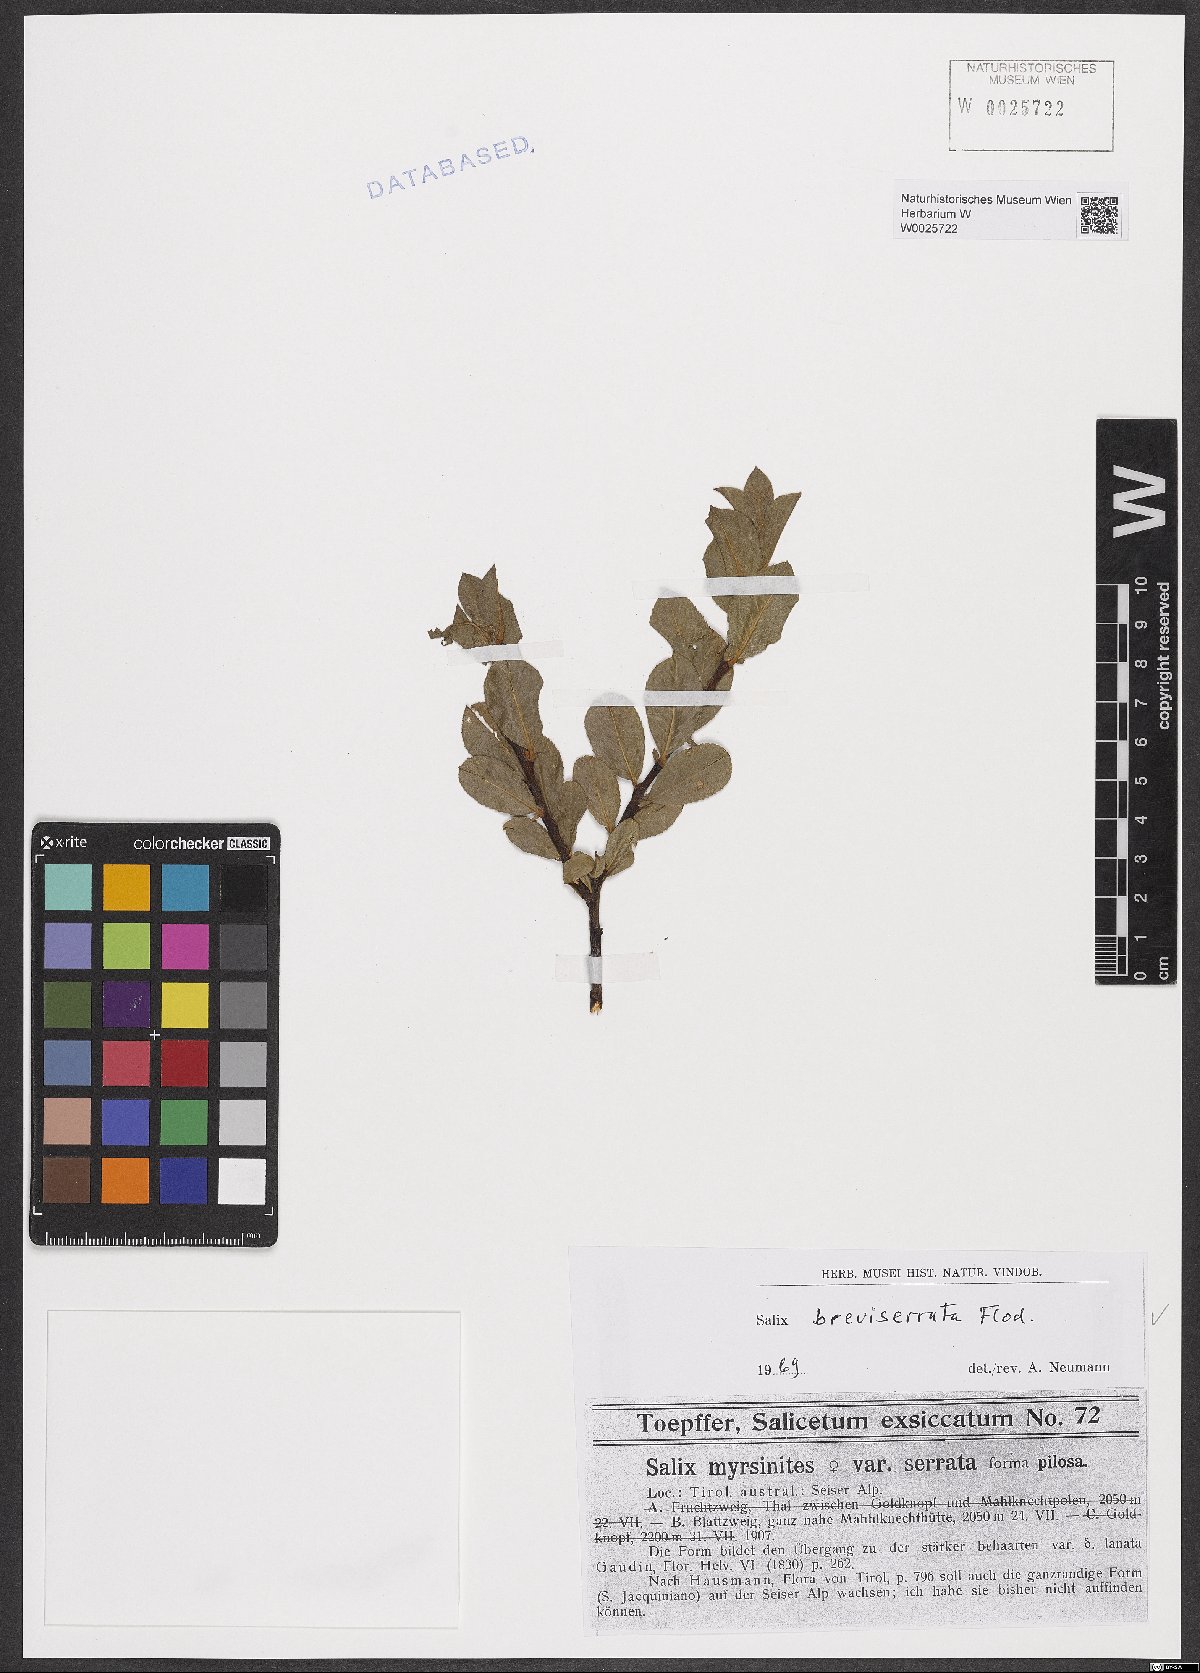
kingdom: Plantae
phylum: Tracheophyta
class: Magnoliopsida
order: Malpighiales
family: Salicaceae
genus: Salix
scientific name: Salix breviserrata
